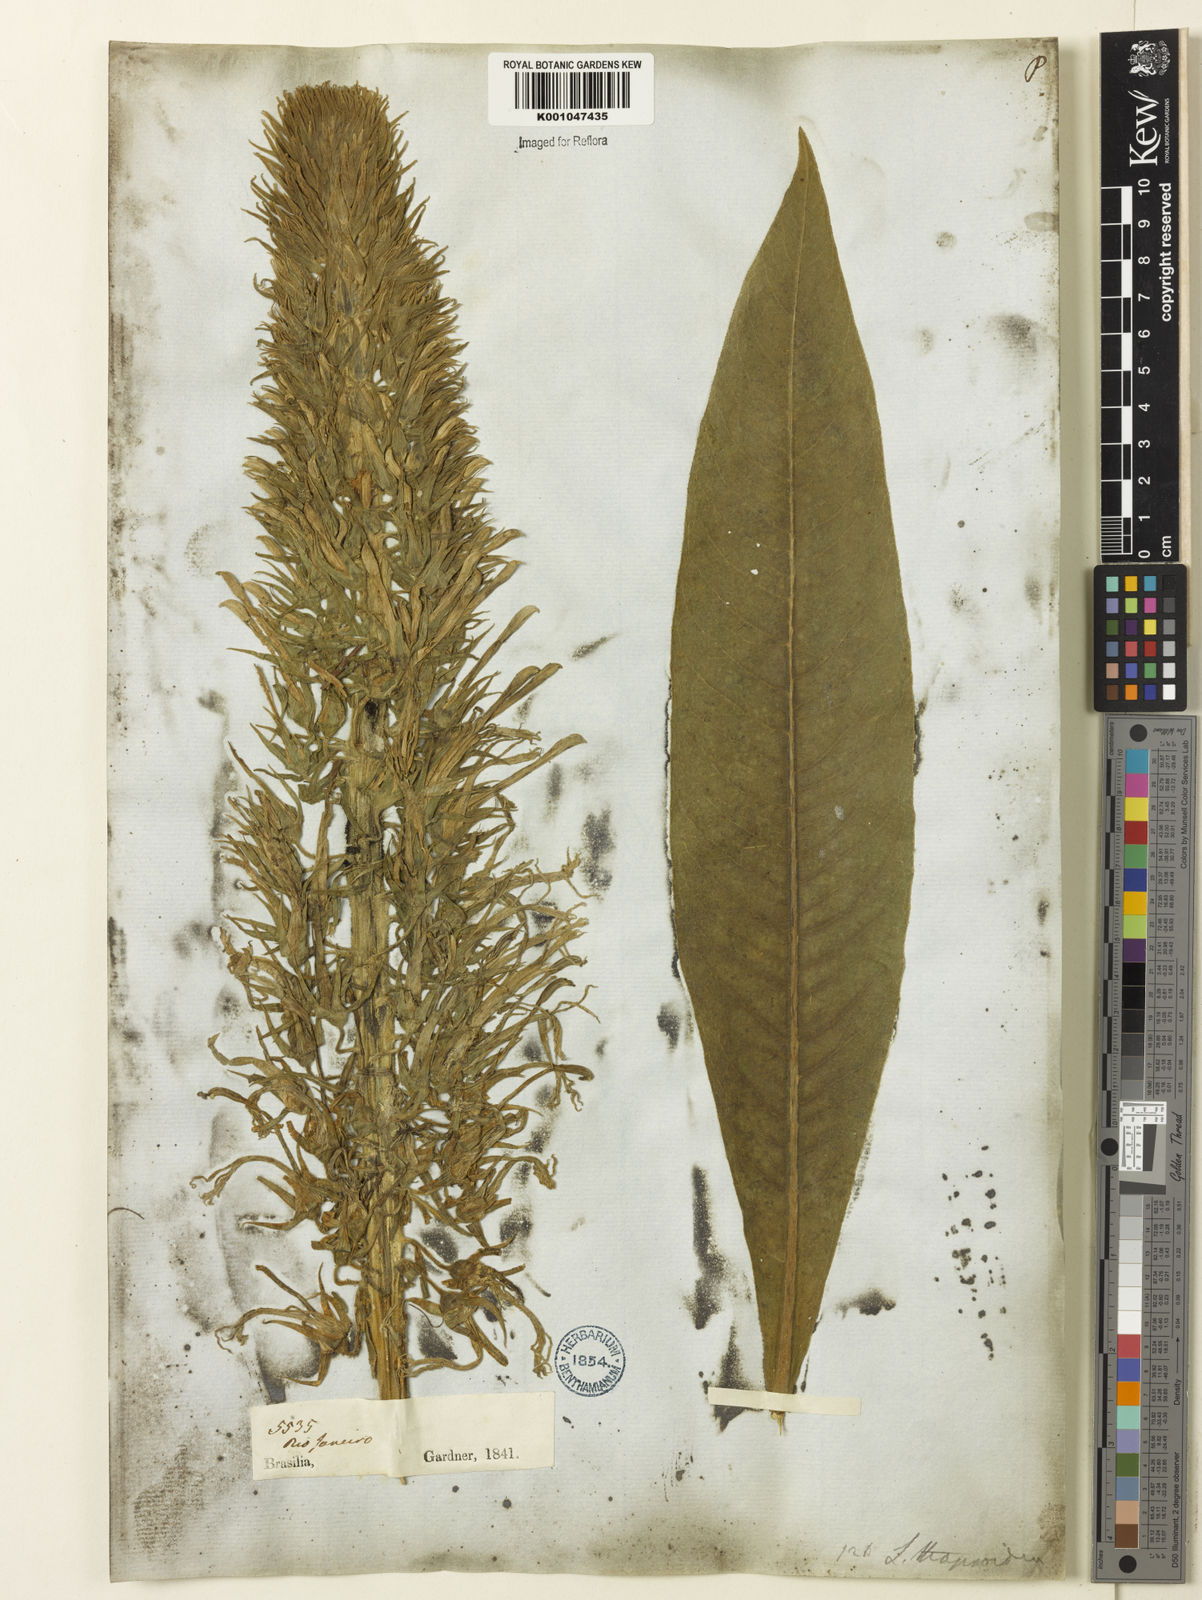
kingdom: Plantae
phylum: Tracheophyta
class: Magnoliopsida
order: Asterales
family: Campanulaceae
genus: Lobelia
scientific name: Lobelia
